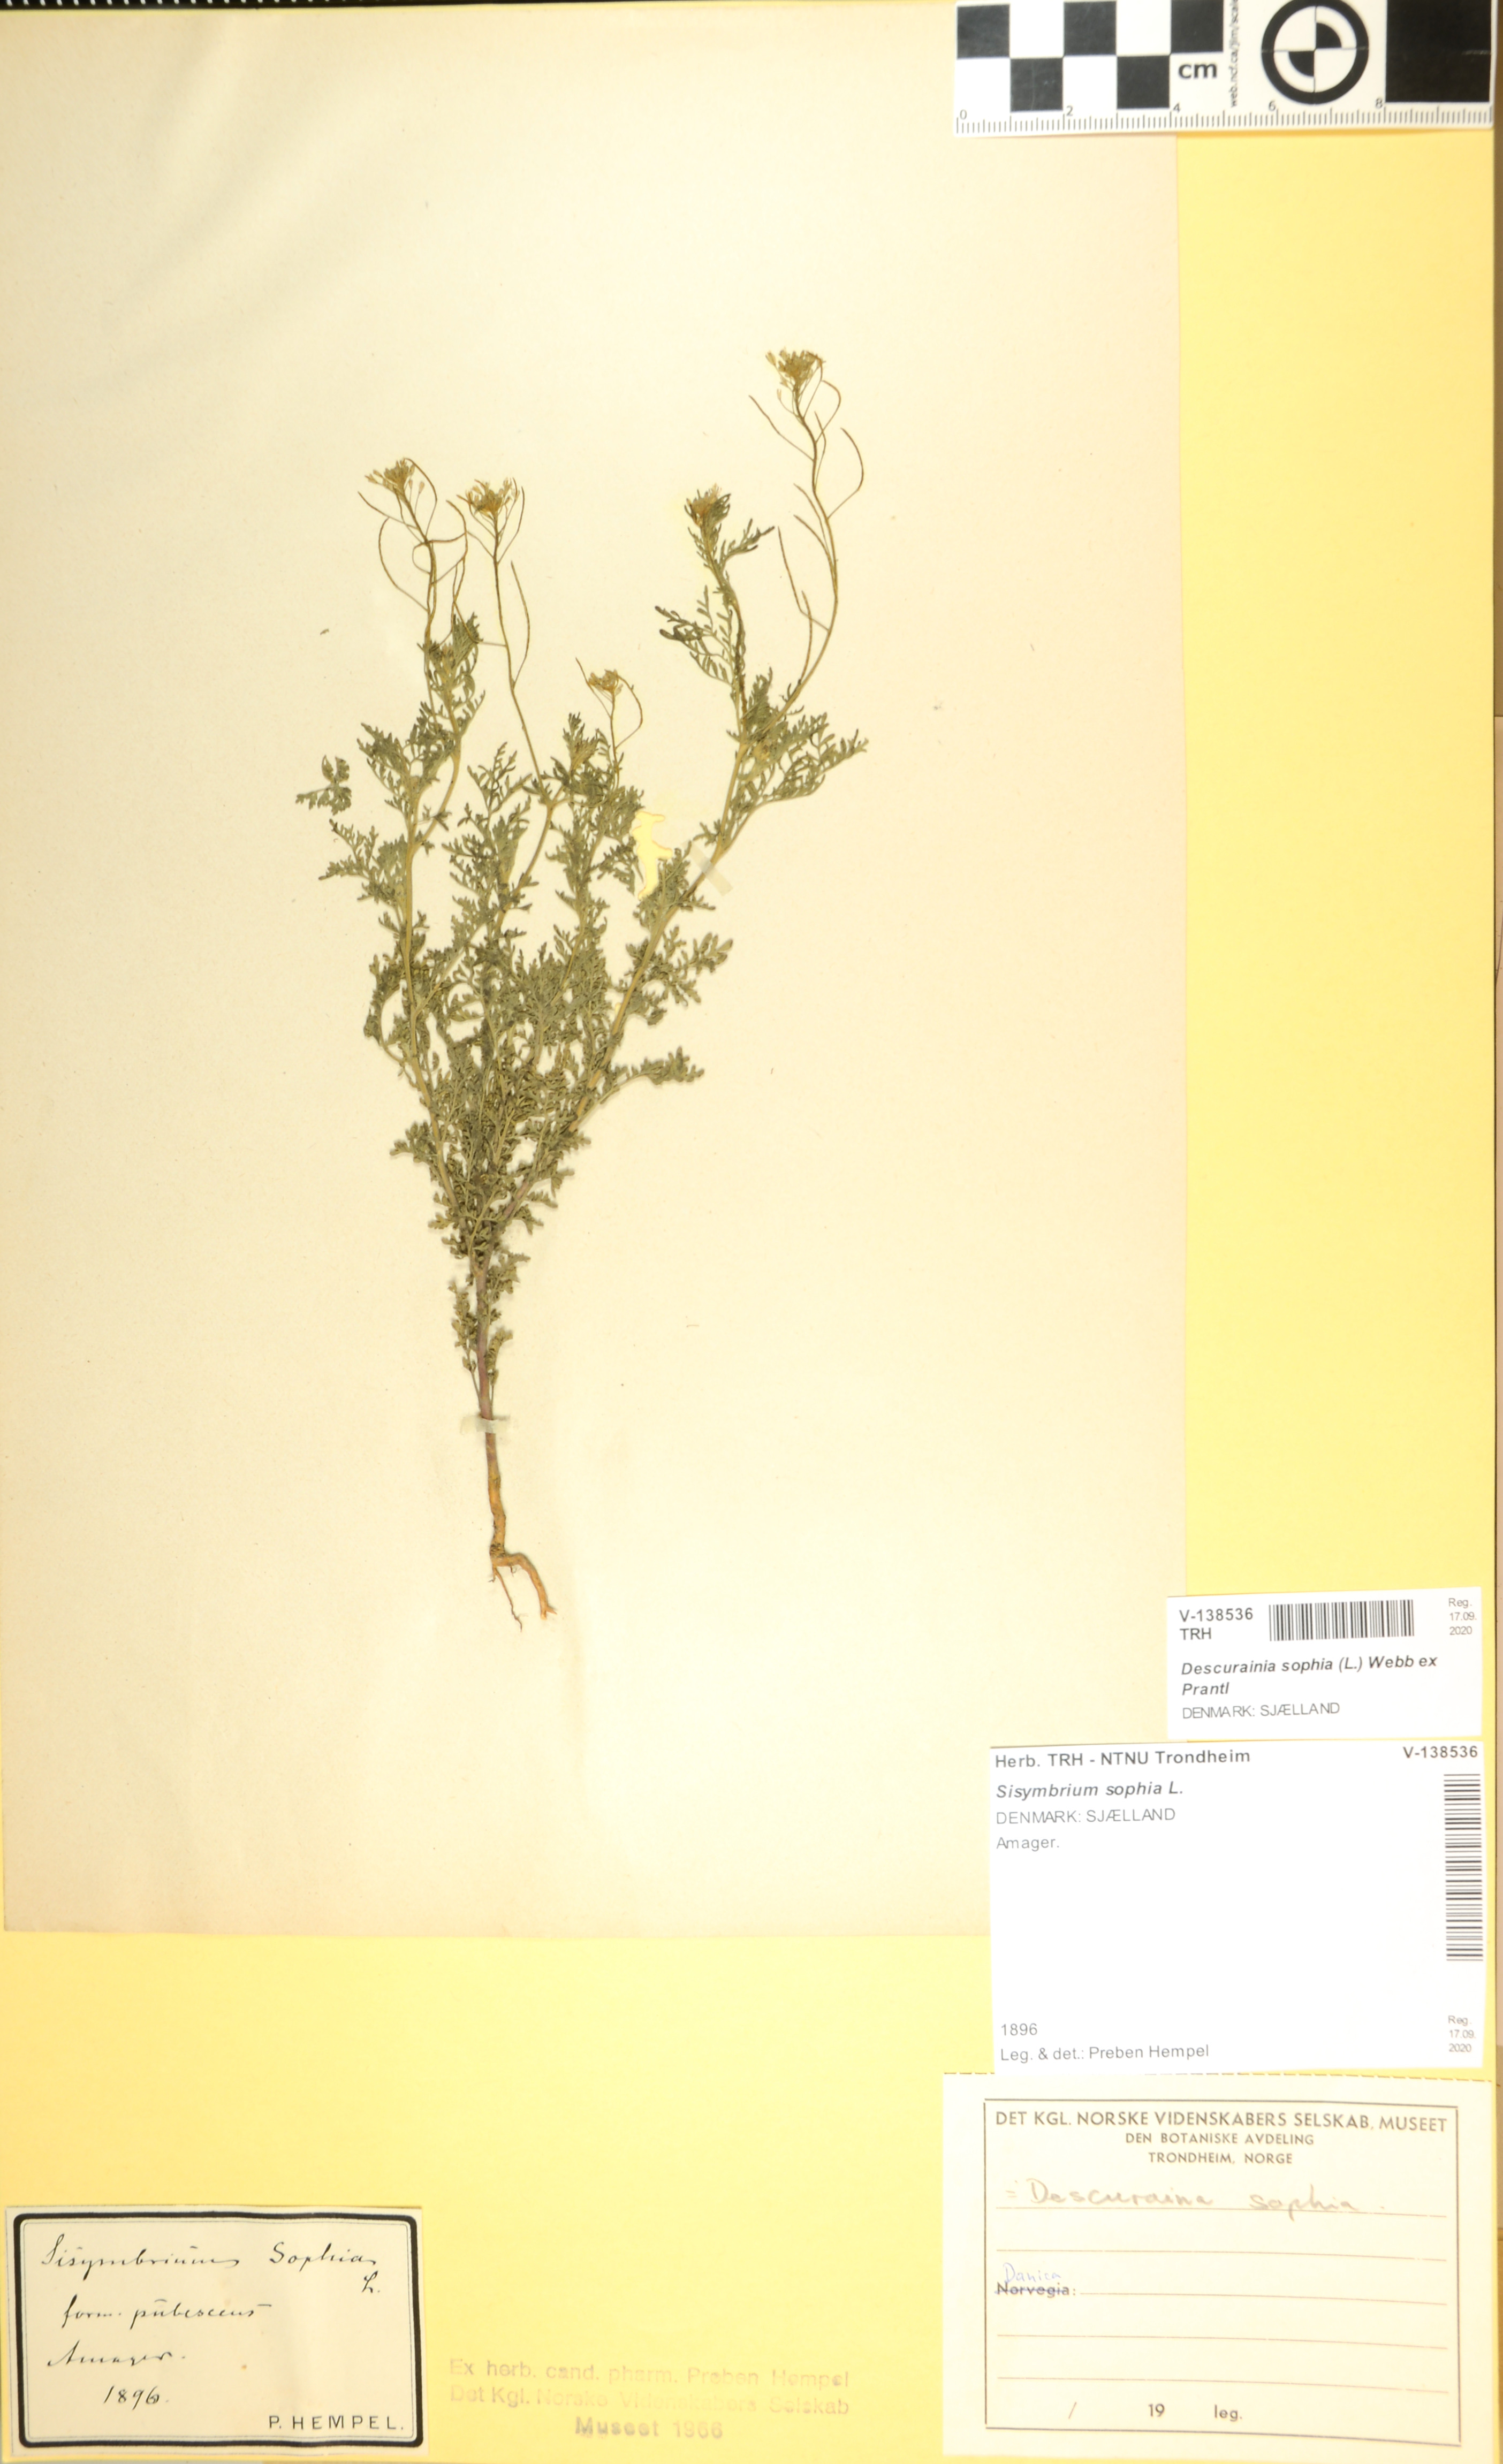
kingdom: Plantae
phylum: Tracheophyta
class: Magnoliopsida
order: Brassicales
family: Brassicaceae
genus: Descurainia
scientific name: Descurainia sophia
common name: Flixweed
